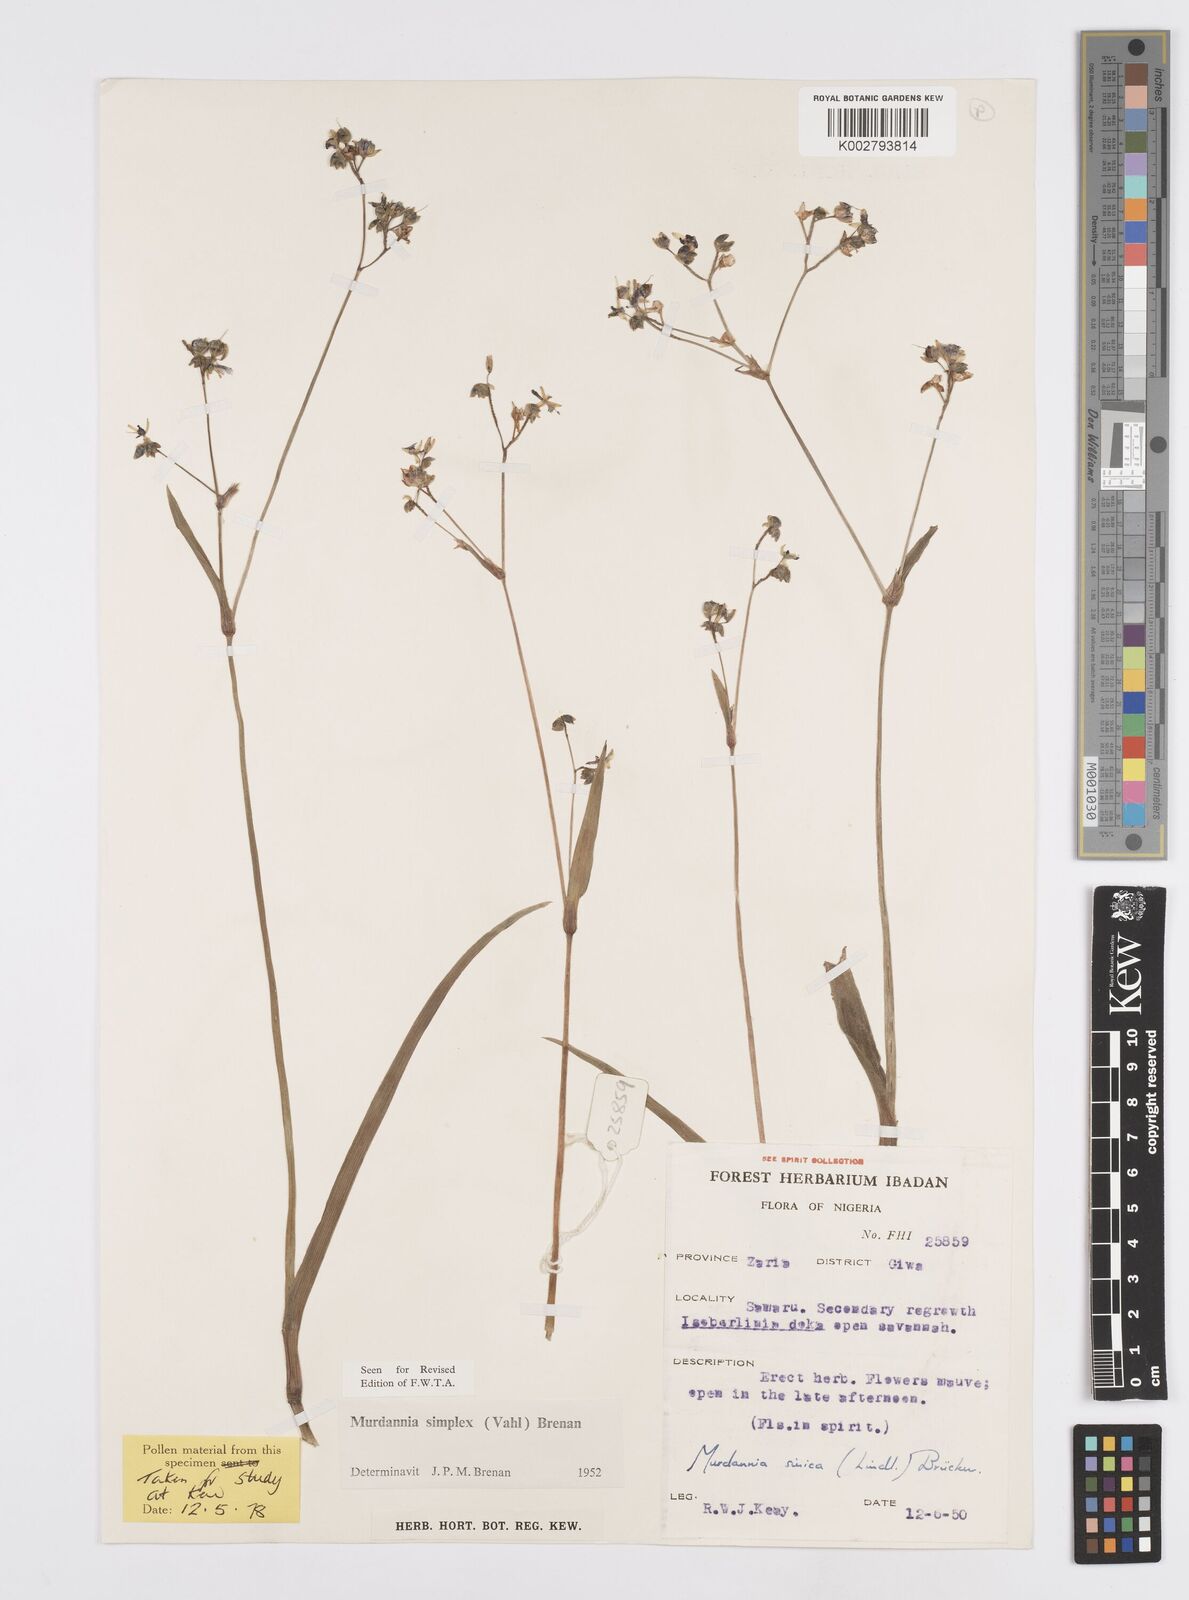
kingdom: Plantae
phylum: Tracheophyta
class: Liliopsida
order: Commelinales
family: Commelinaceae
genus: Murdannia
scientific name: Murdannia simplex
